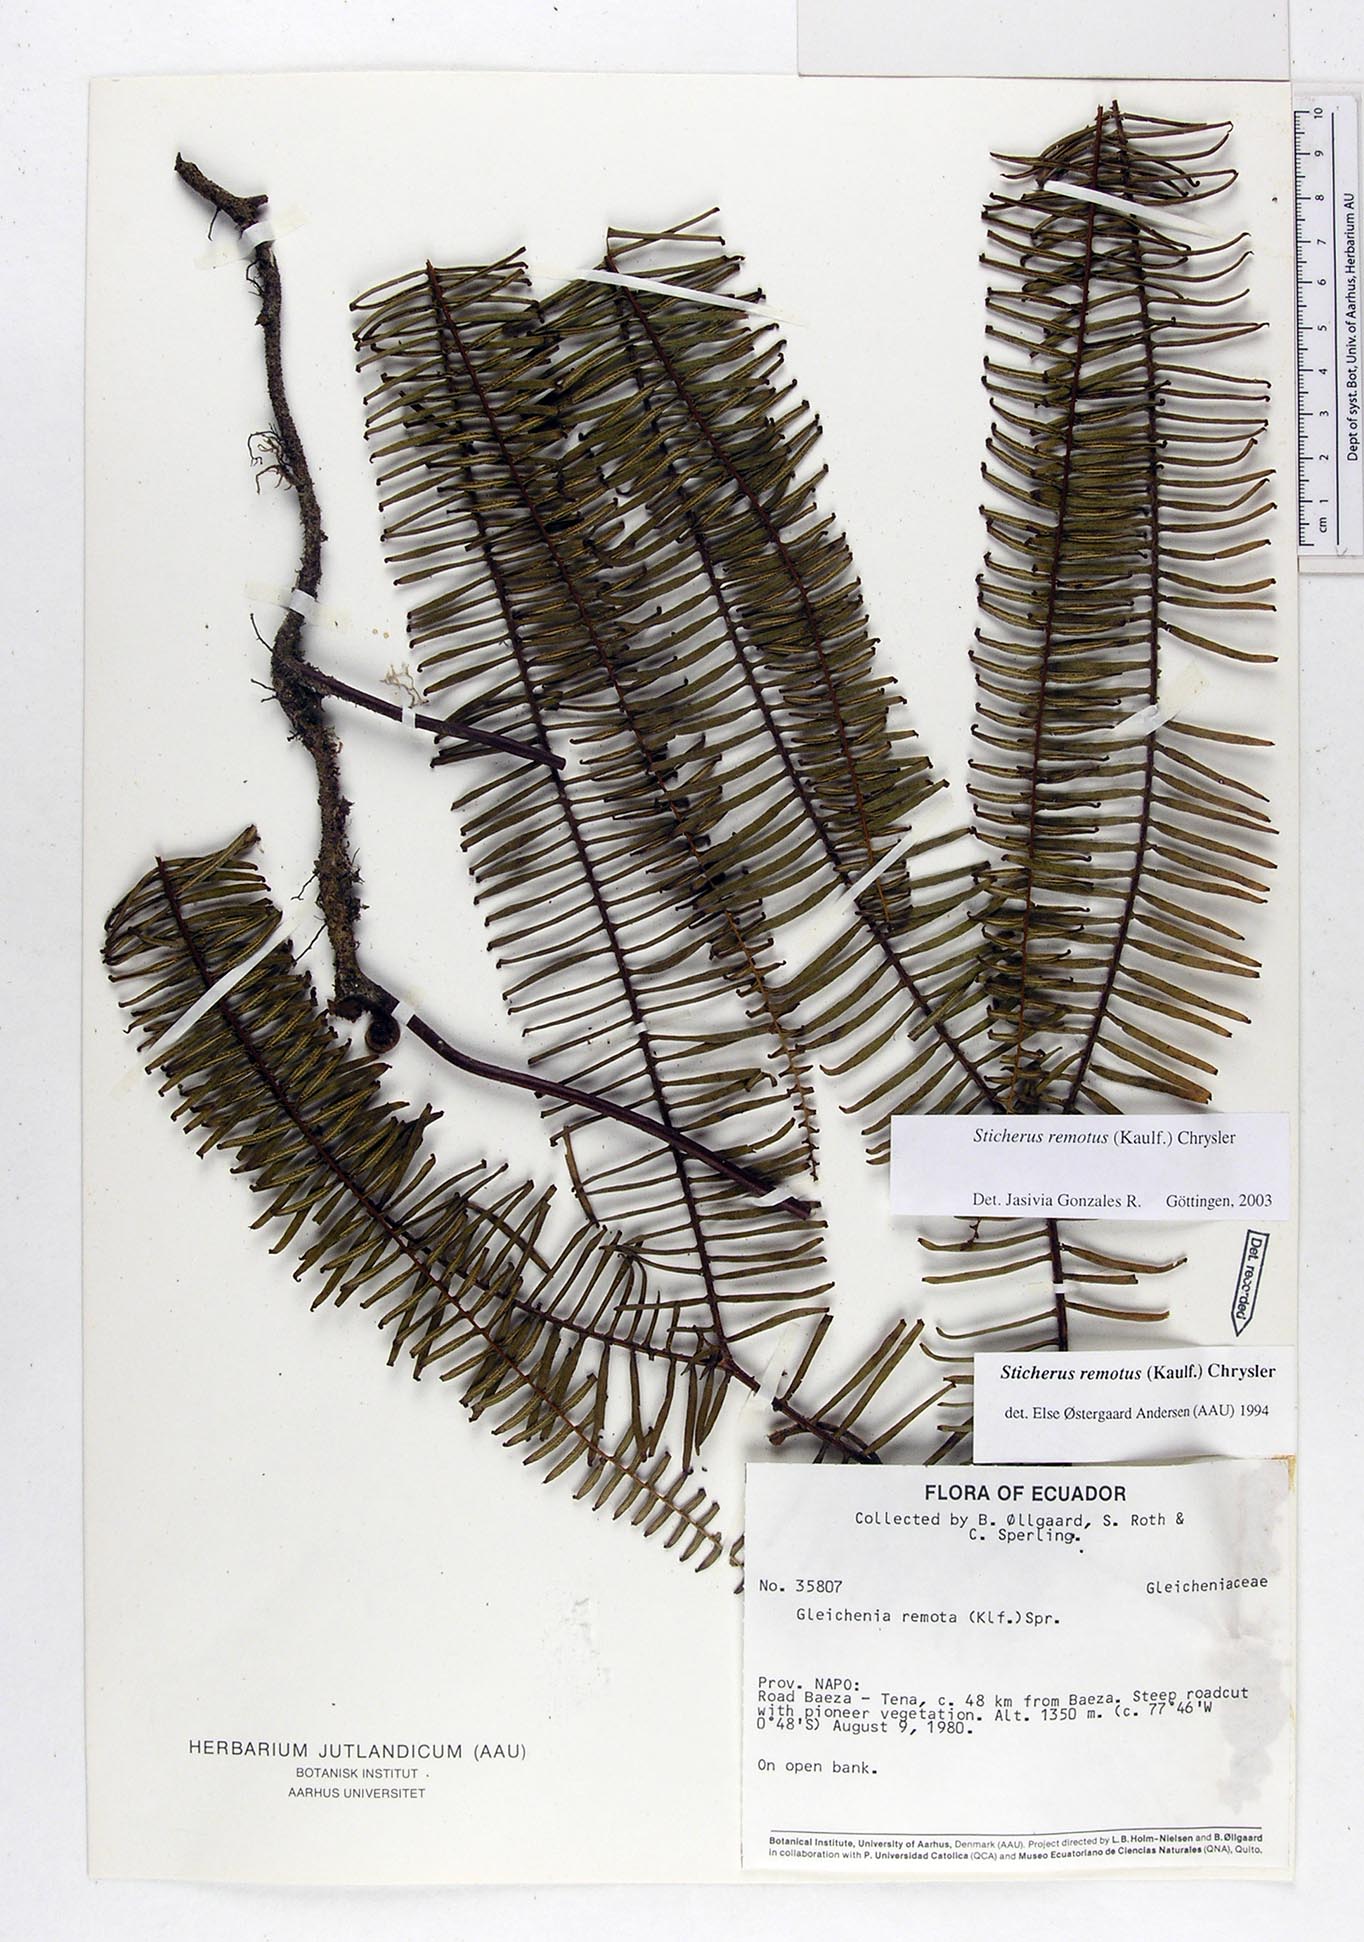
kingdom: Plantae
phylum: Tracheophyta
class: Polypodiopsida
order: Gleicheniales
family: Gleicheniaceae
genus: Sticherus
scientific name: Sticherus remotus
